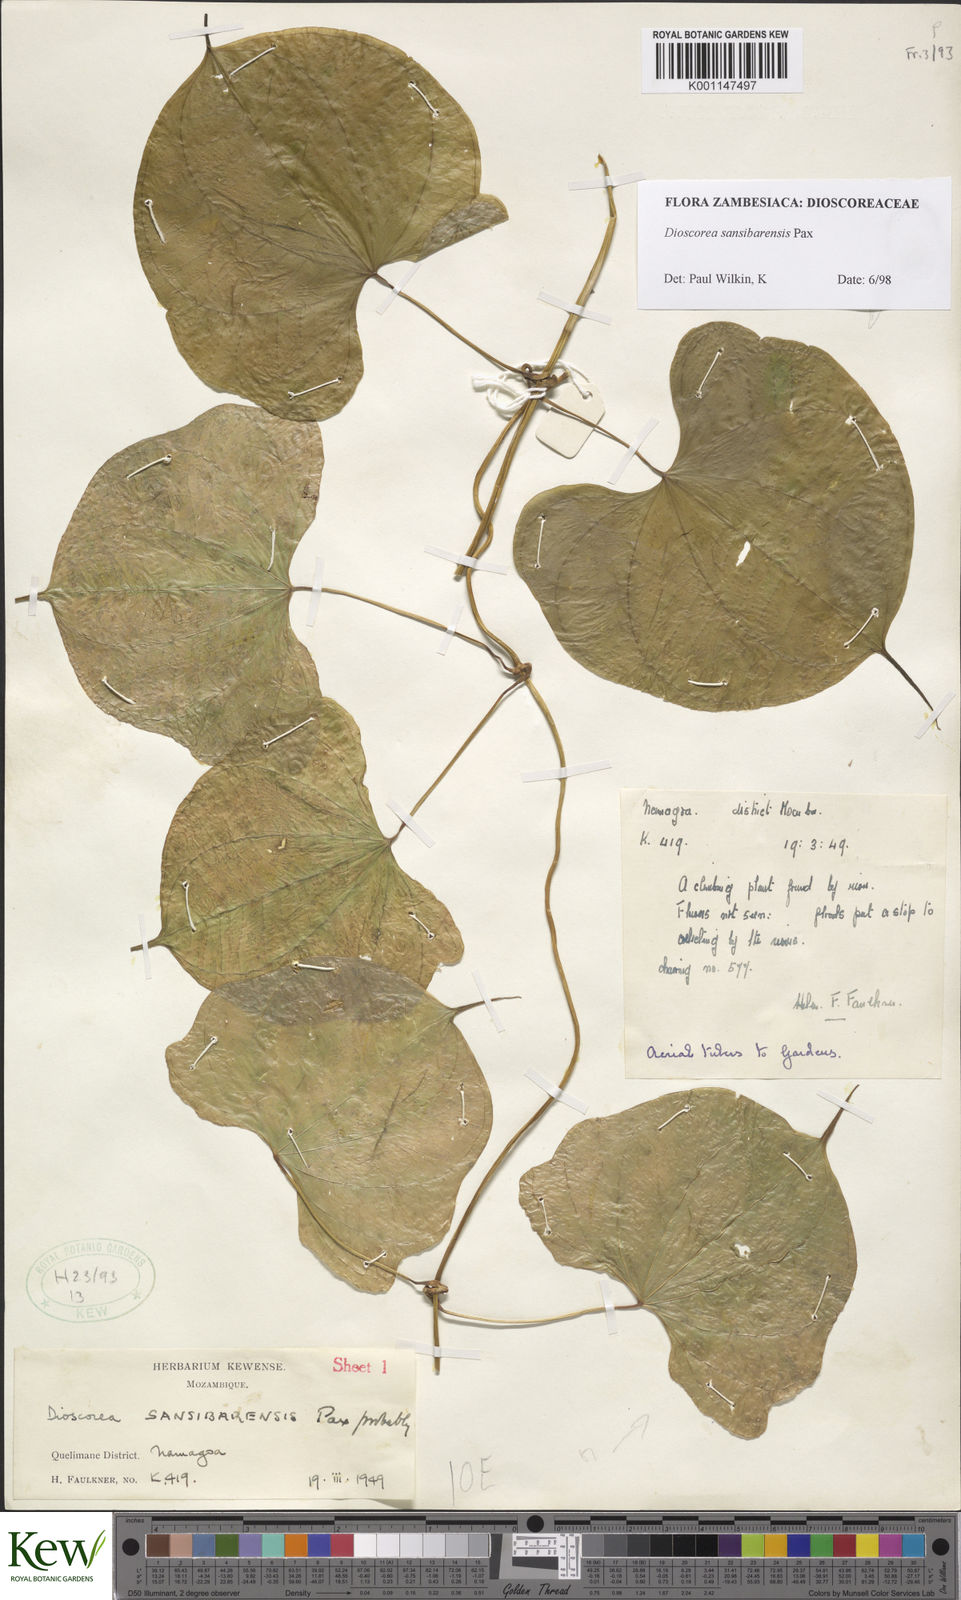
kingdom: Plantae
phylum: Tracheophyta
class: Liliopsida
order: Dioscoreales
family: Dioscoreaceae
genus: Dioscorea
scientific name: Dioscorea sansibarensis
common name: Zanzibar yam
